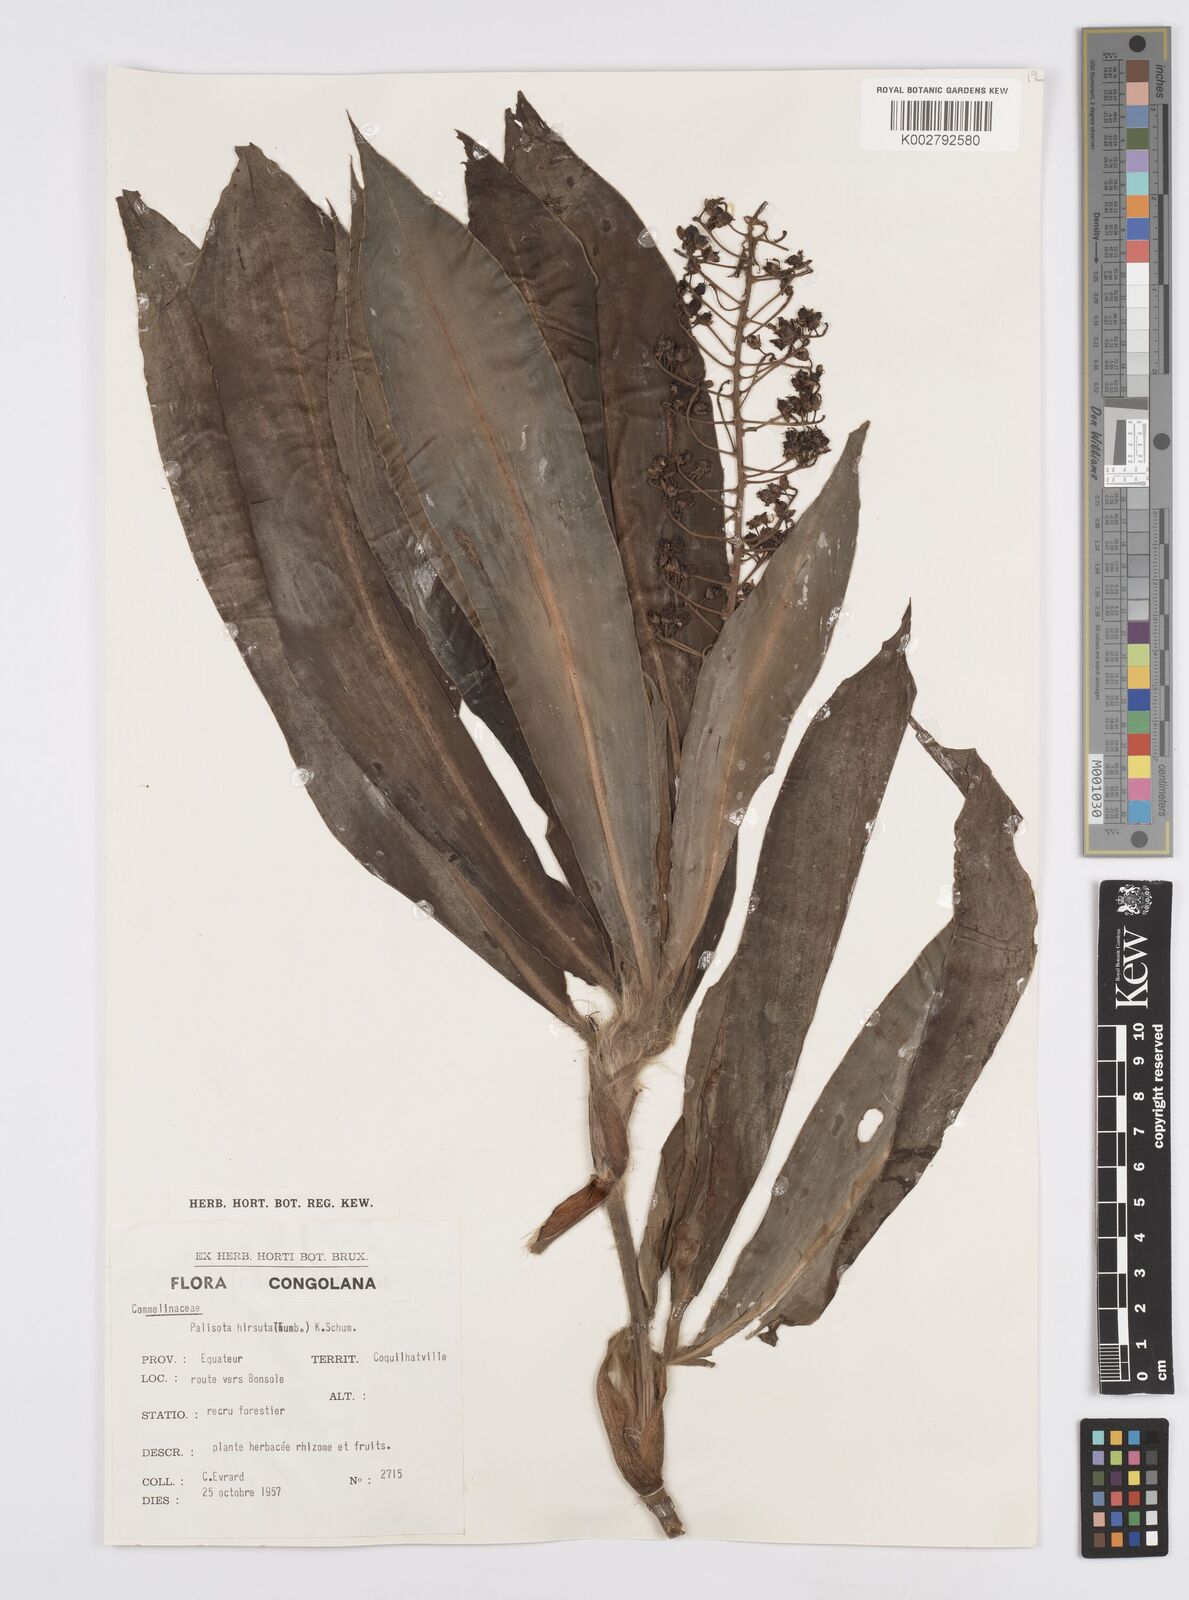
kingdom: Plantae
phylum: Tracheophyta
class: Liliopsida
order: Commelinales
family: Commelinaceae
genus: Palisota
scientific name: Palisota hirsuta
